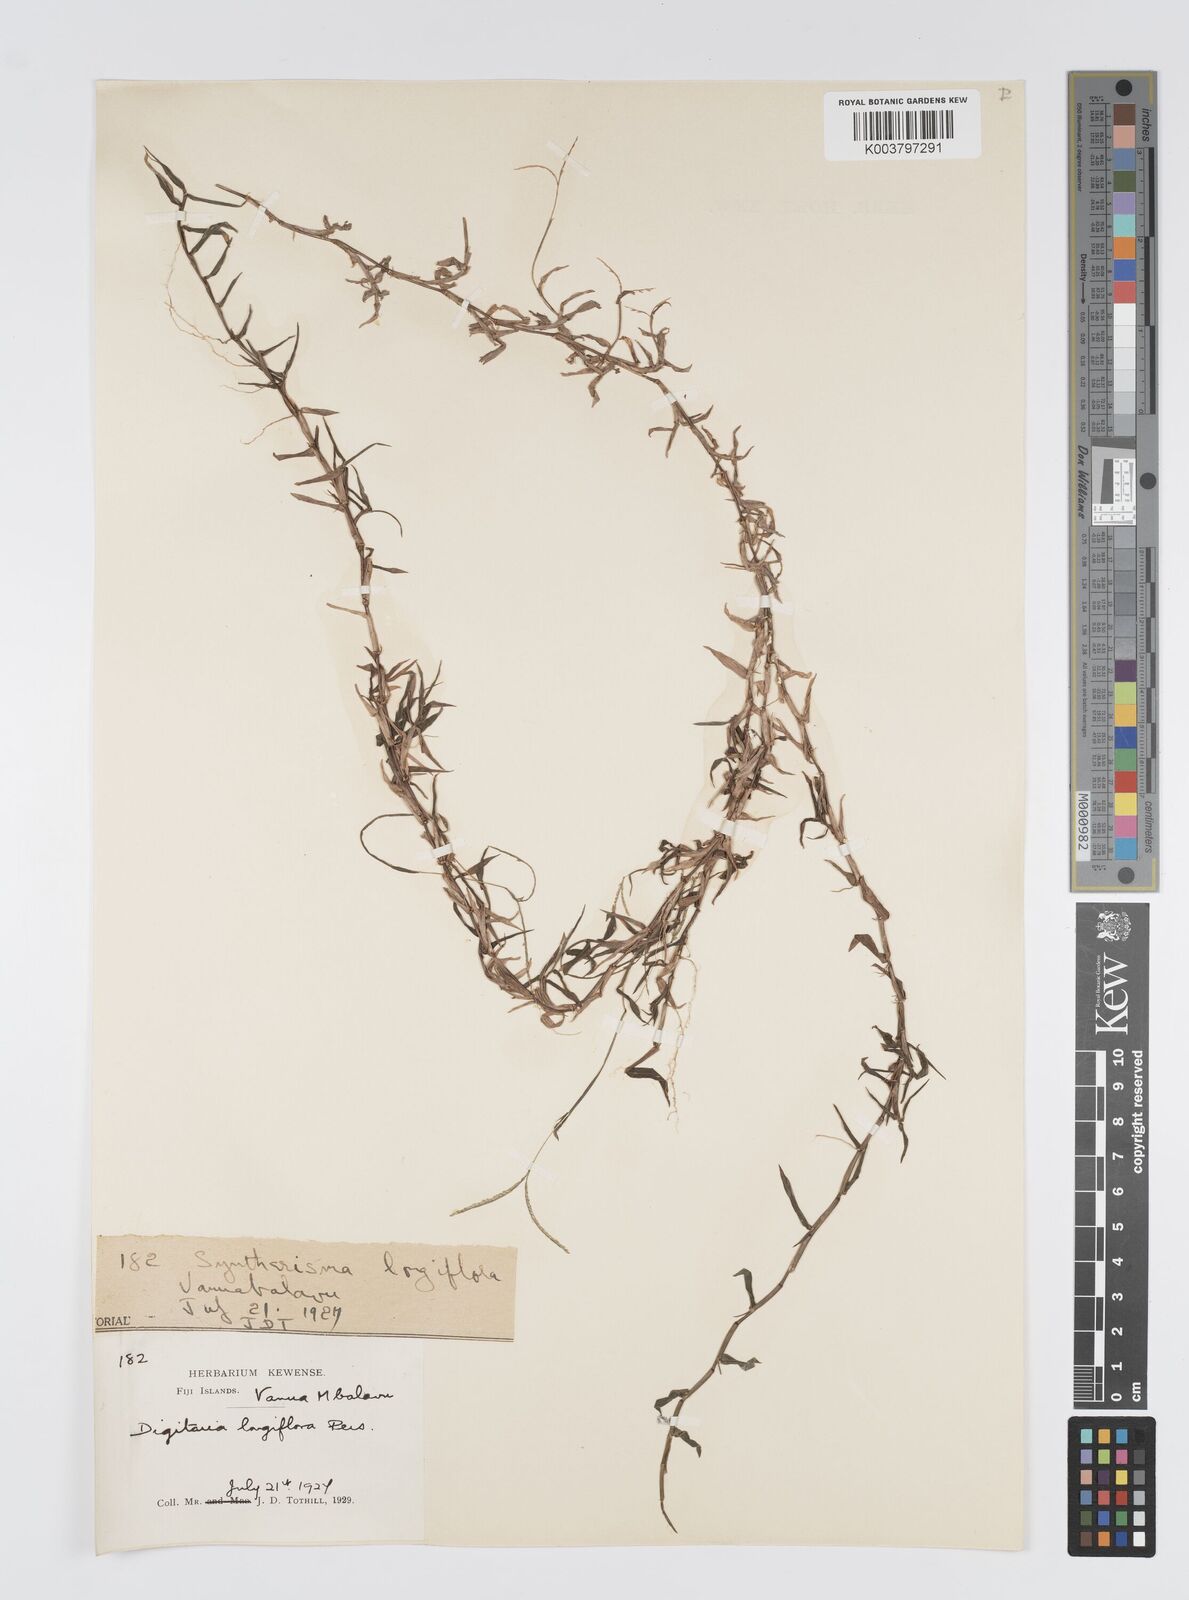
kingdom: Plantae
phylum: Tracheophyta
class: Liliopsida
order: Poales
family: Poaceae
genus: Digitaria
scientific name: Digitaria fuscescens
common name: Yellow crabgrass
